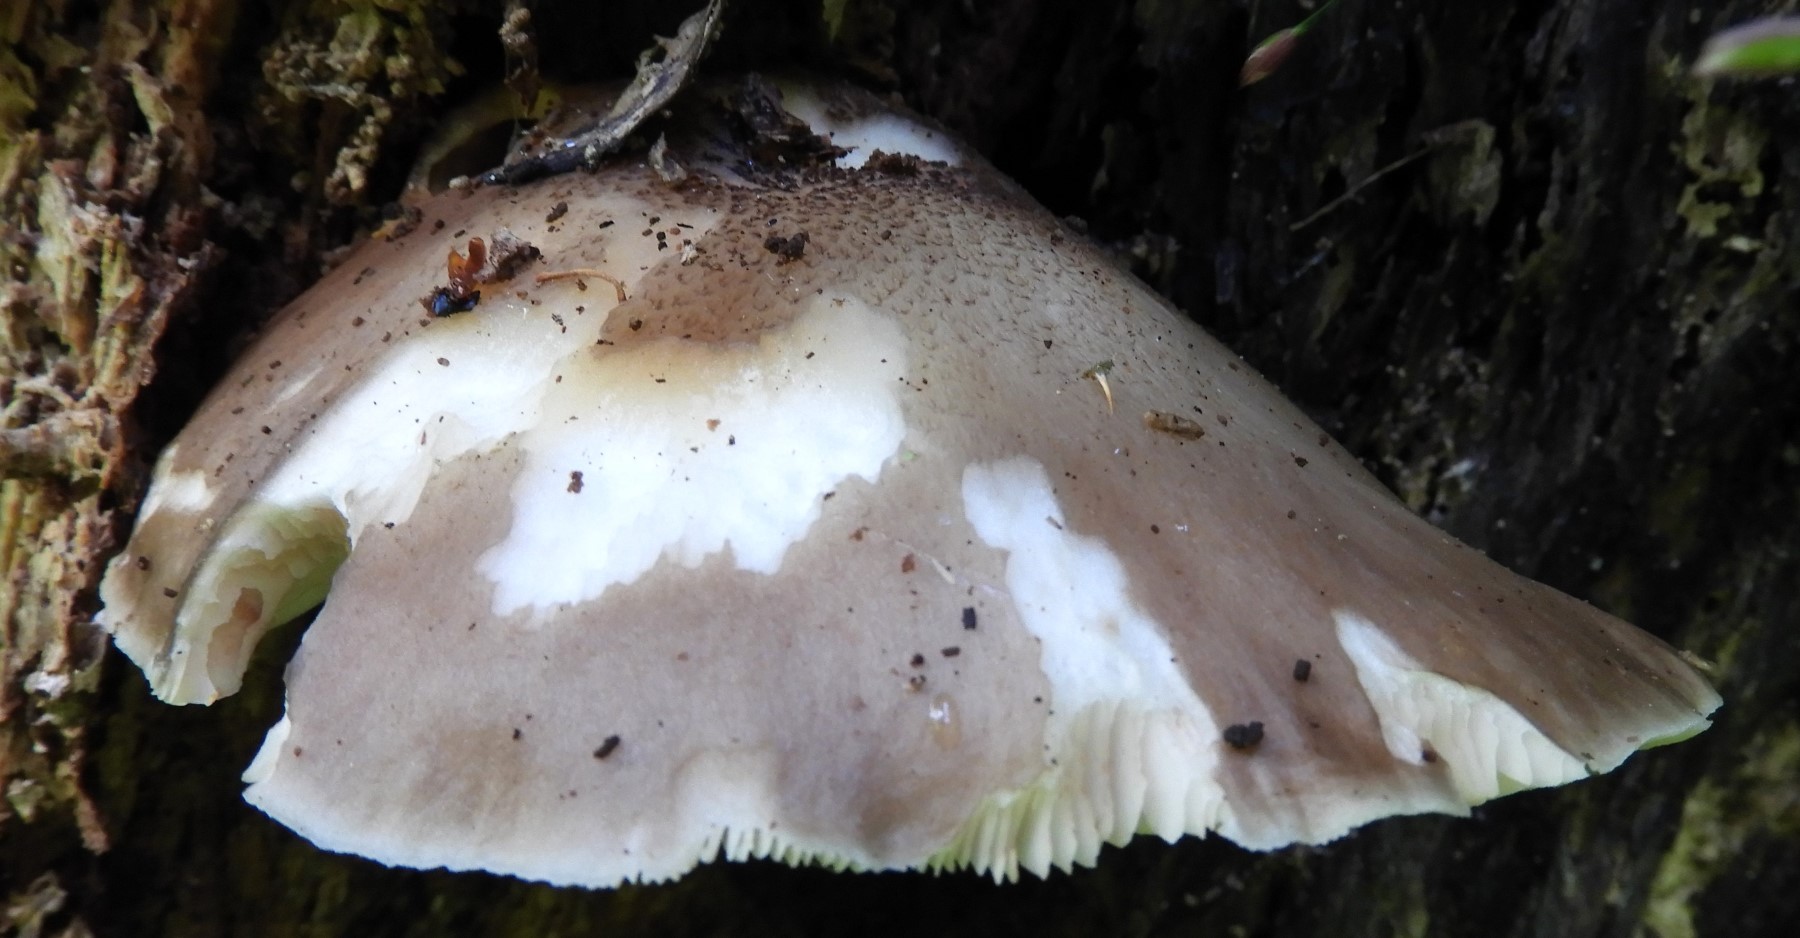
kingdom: Fungi
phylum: Basidiomycota
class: Agaricomycetes
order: Agaricales
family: Pluteaceae
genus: Pluteus
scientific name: Pluteus cervinus
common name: sodfarvet skærmhat
